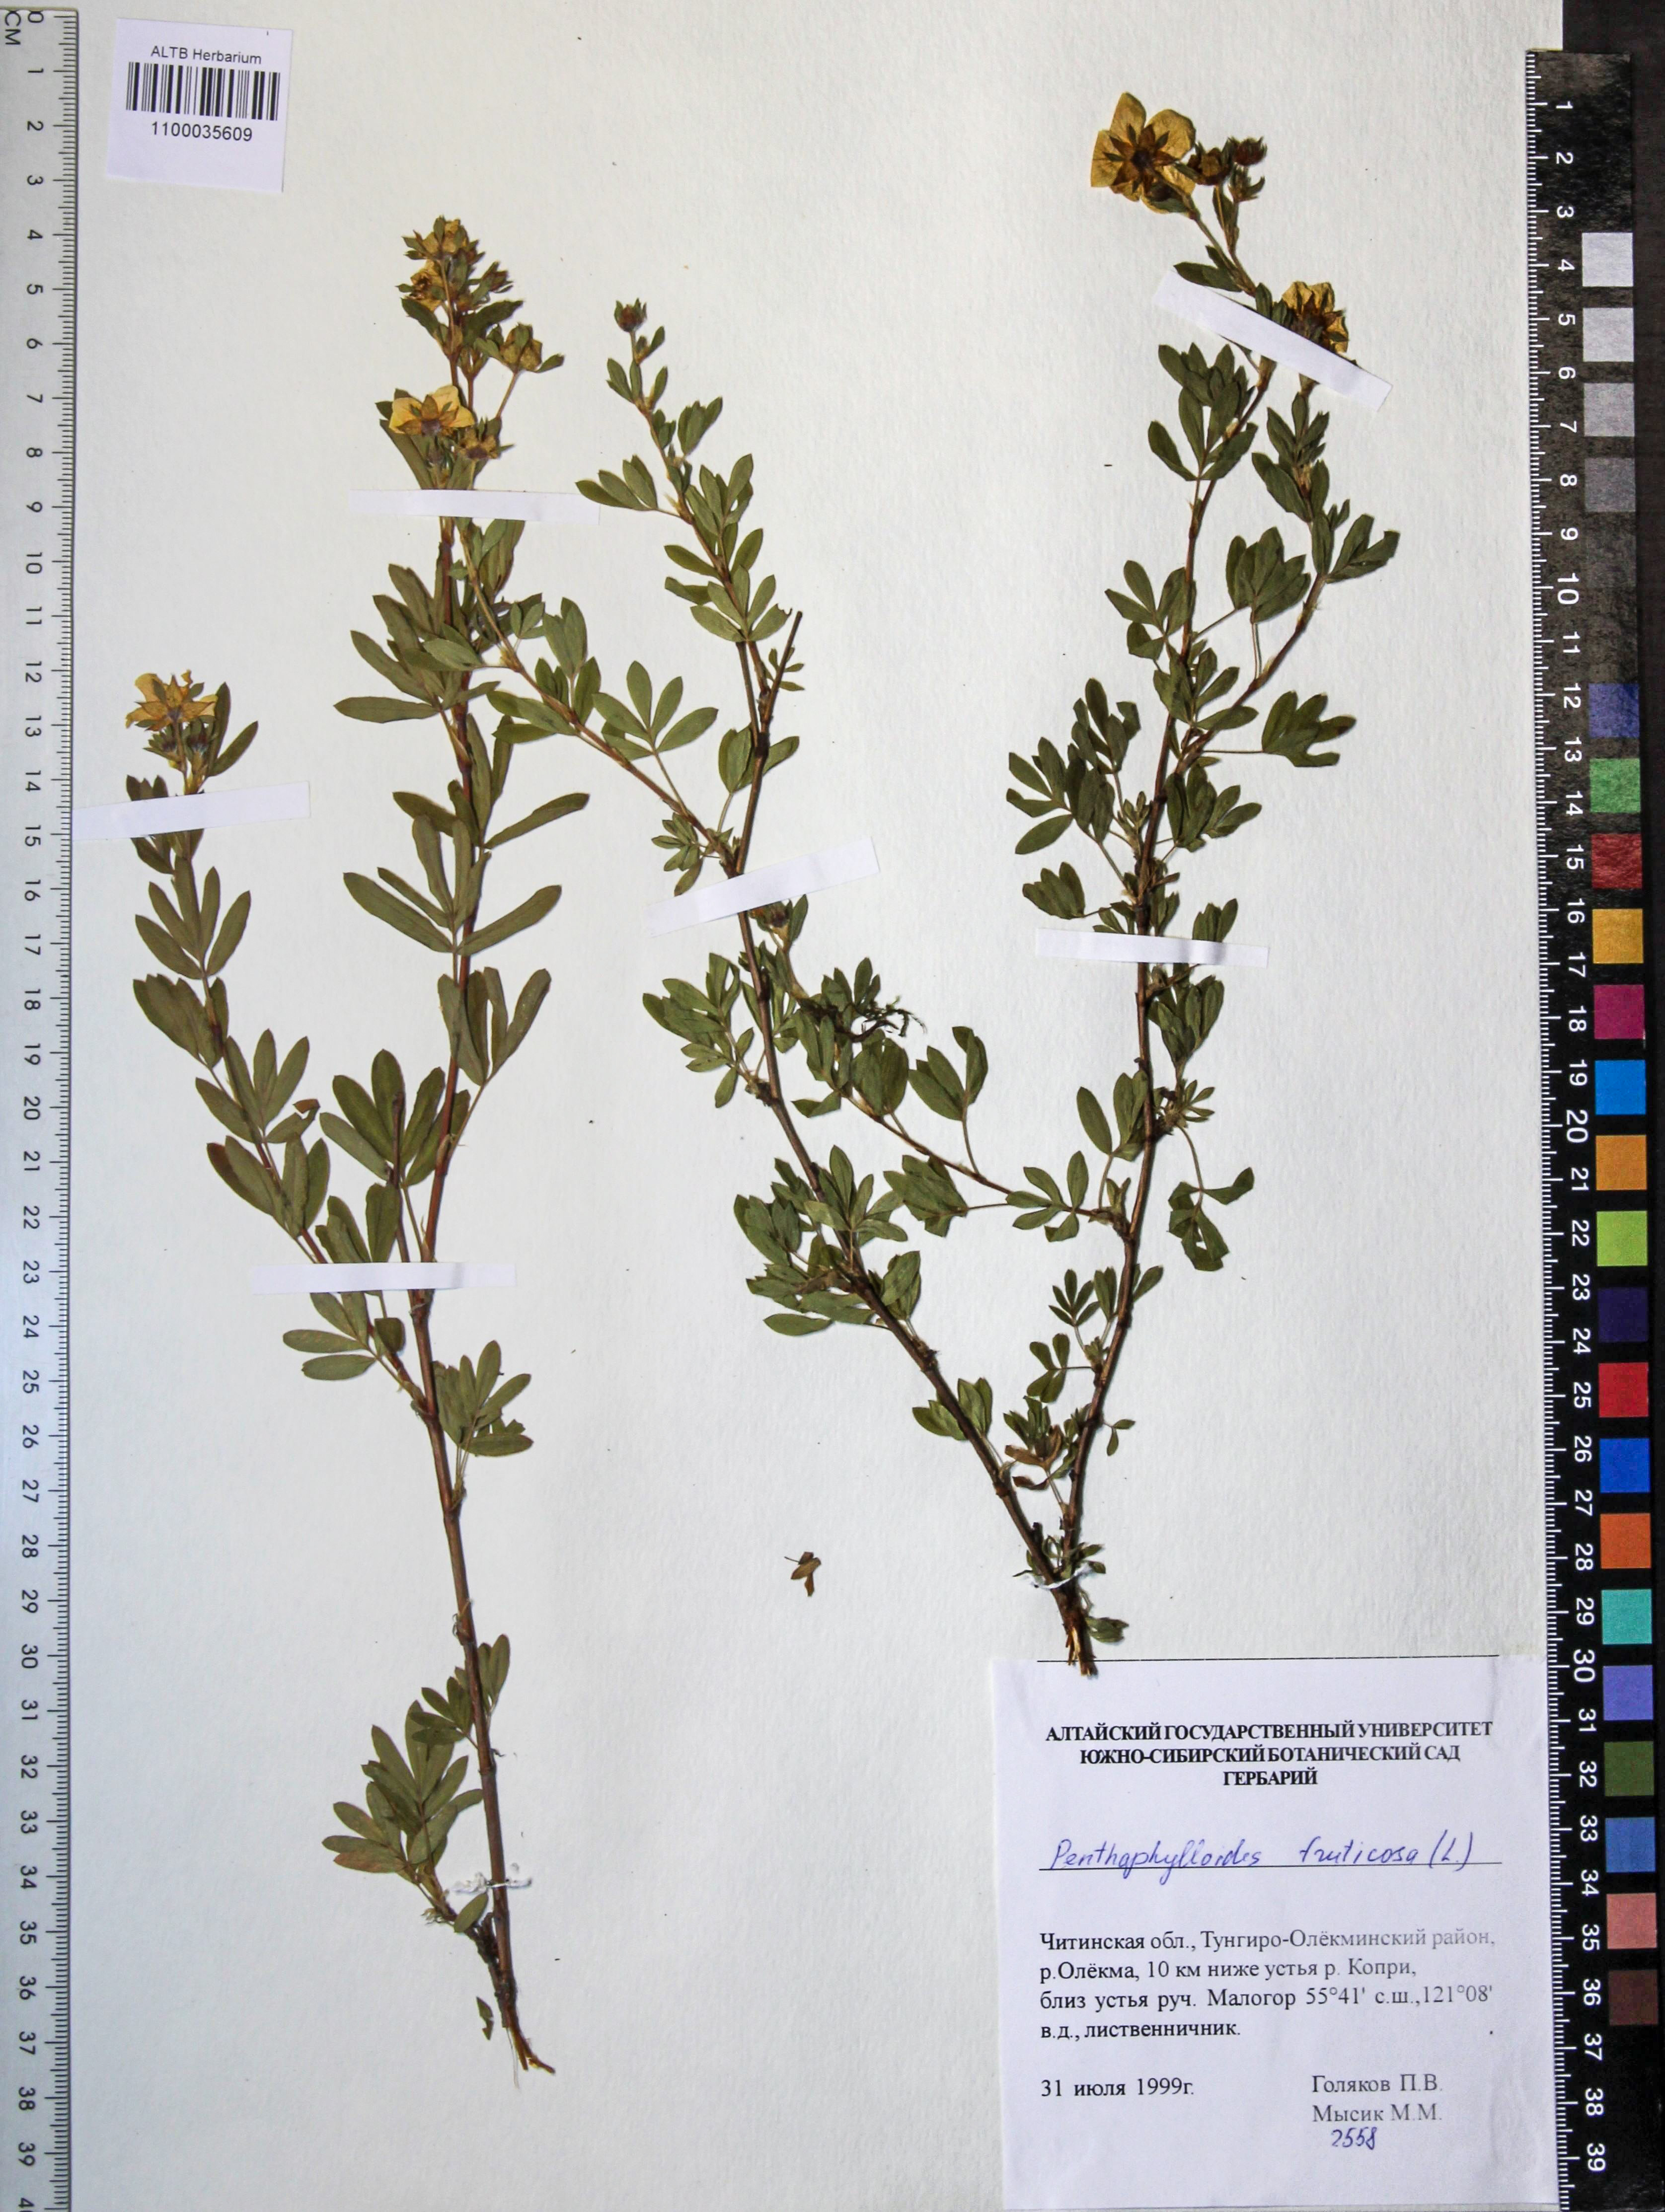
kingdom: Plantae
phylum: Tracheophyta
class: Magnoliopsida
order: Rosales
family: Rosaceae
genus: Dasiphora
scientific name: Dasiphora fruticosa
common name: Shrubby cinquefoil
